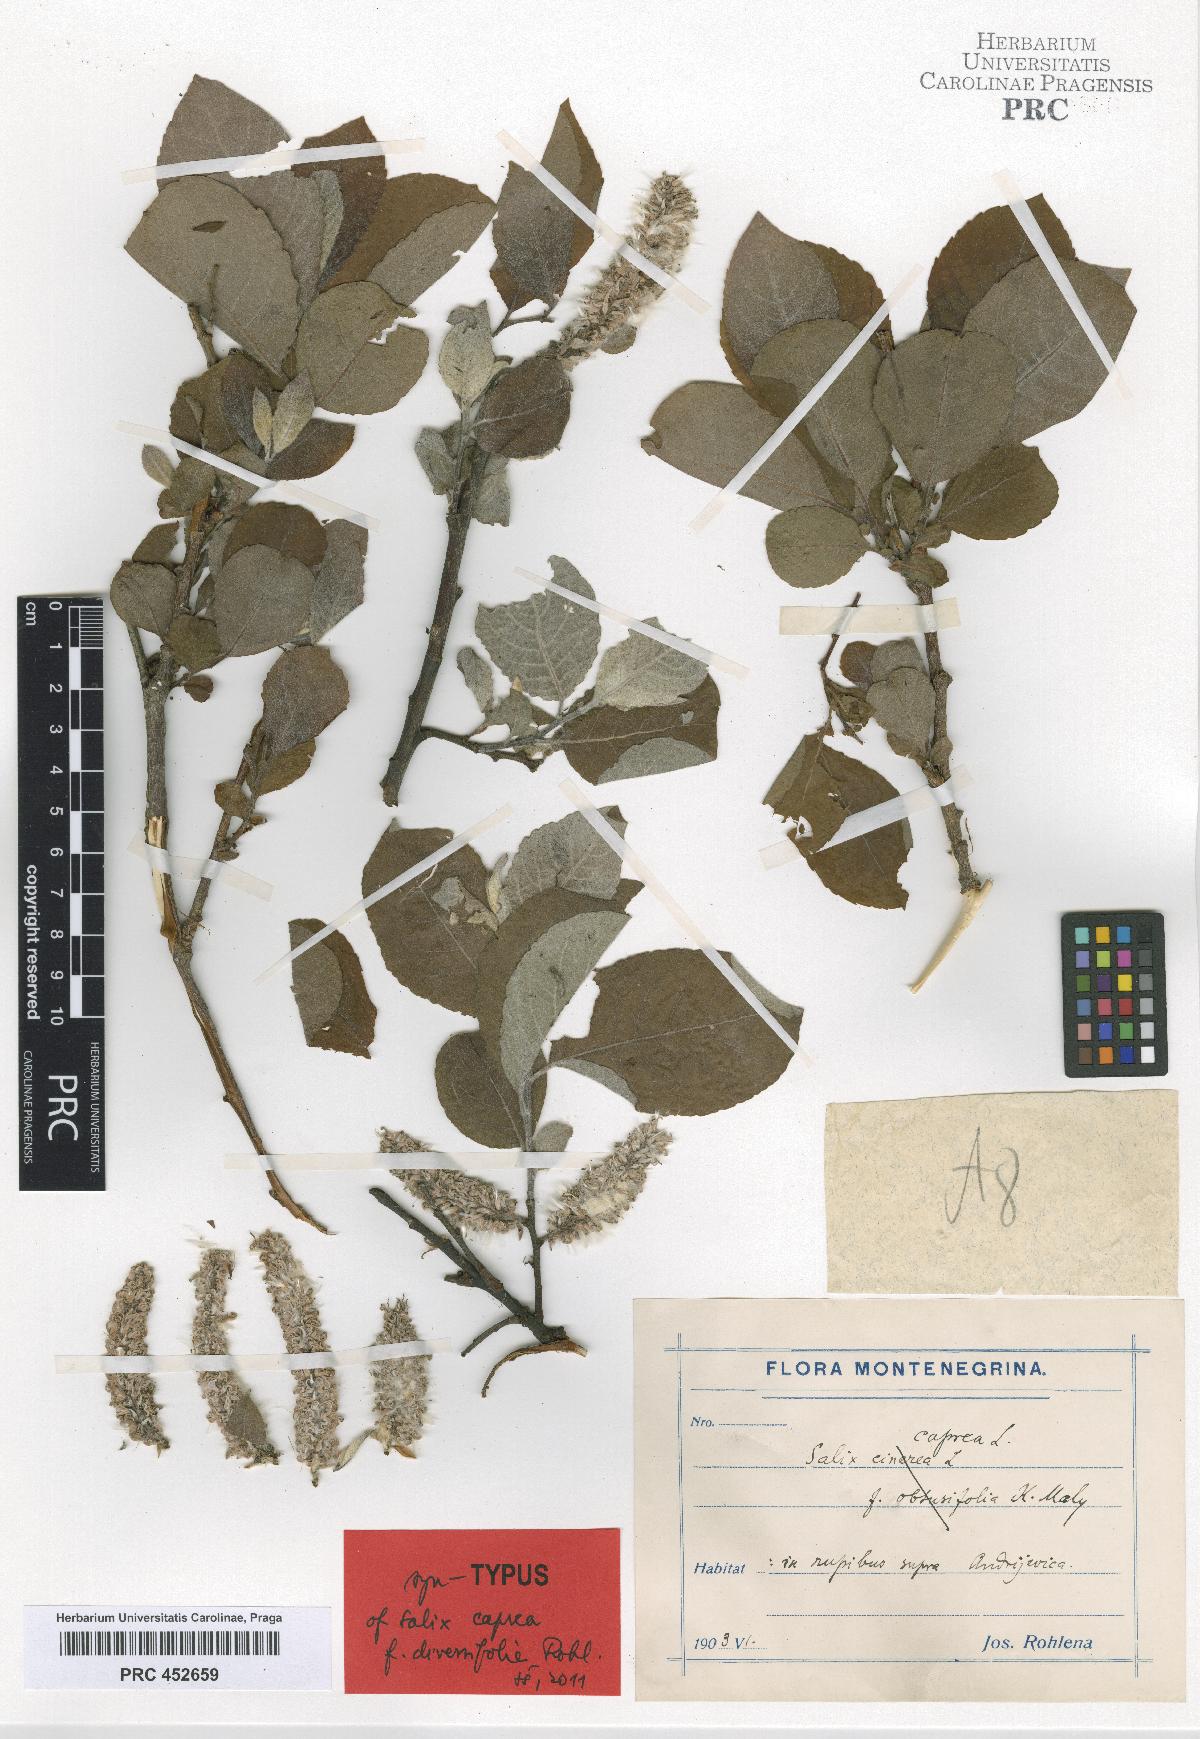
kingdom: Plantae
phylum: Tracheophyta
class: Magnoliopsida
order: Malpighiales
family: Salicaceae
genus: Salix
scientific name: Salix caprea
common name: Goat willow
